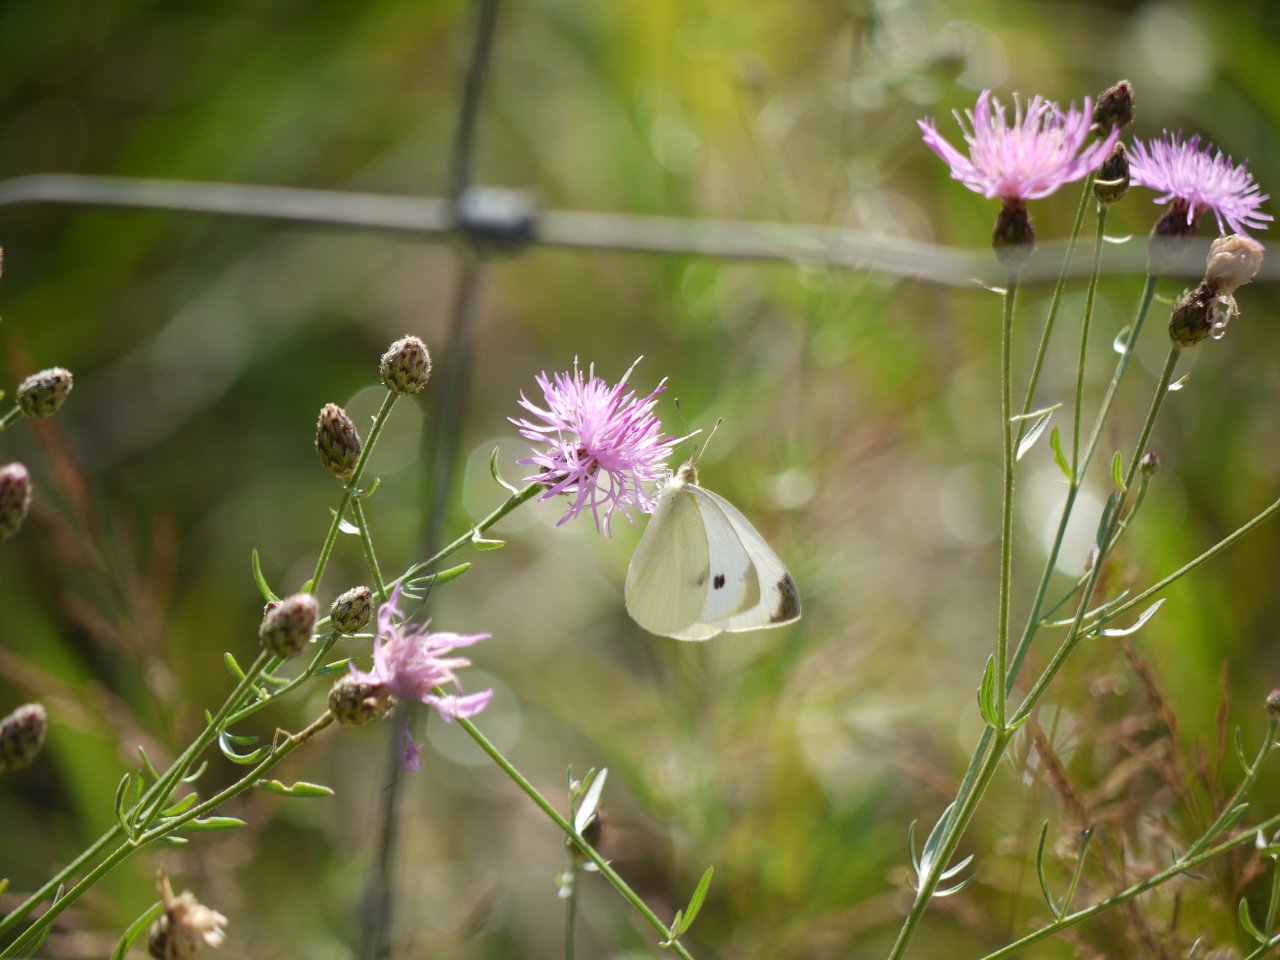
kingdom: Animalia
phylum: Arthropoda
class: Insecta
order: Lepidoptera
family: Pieridae
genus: Pieris
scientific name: Pieris rapae
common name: Cabbage White
